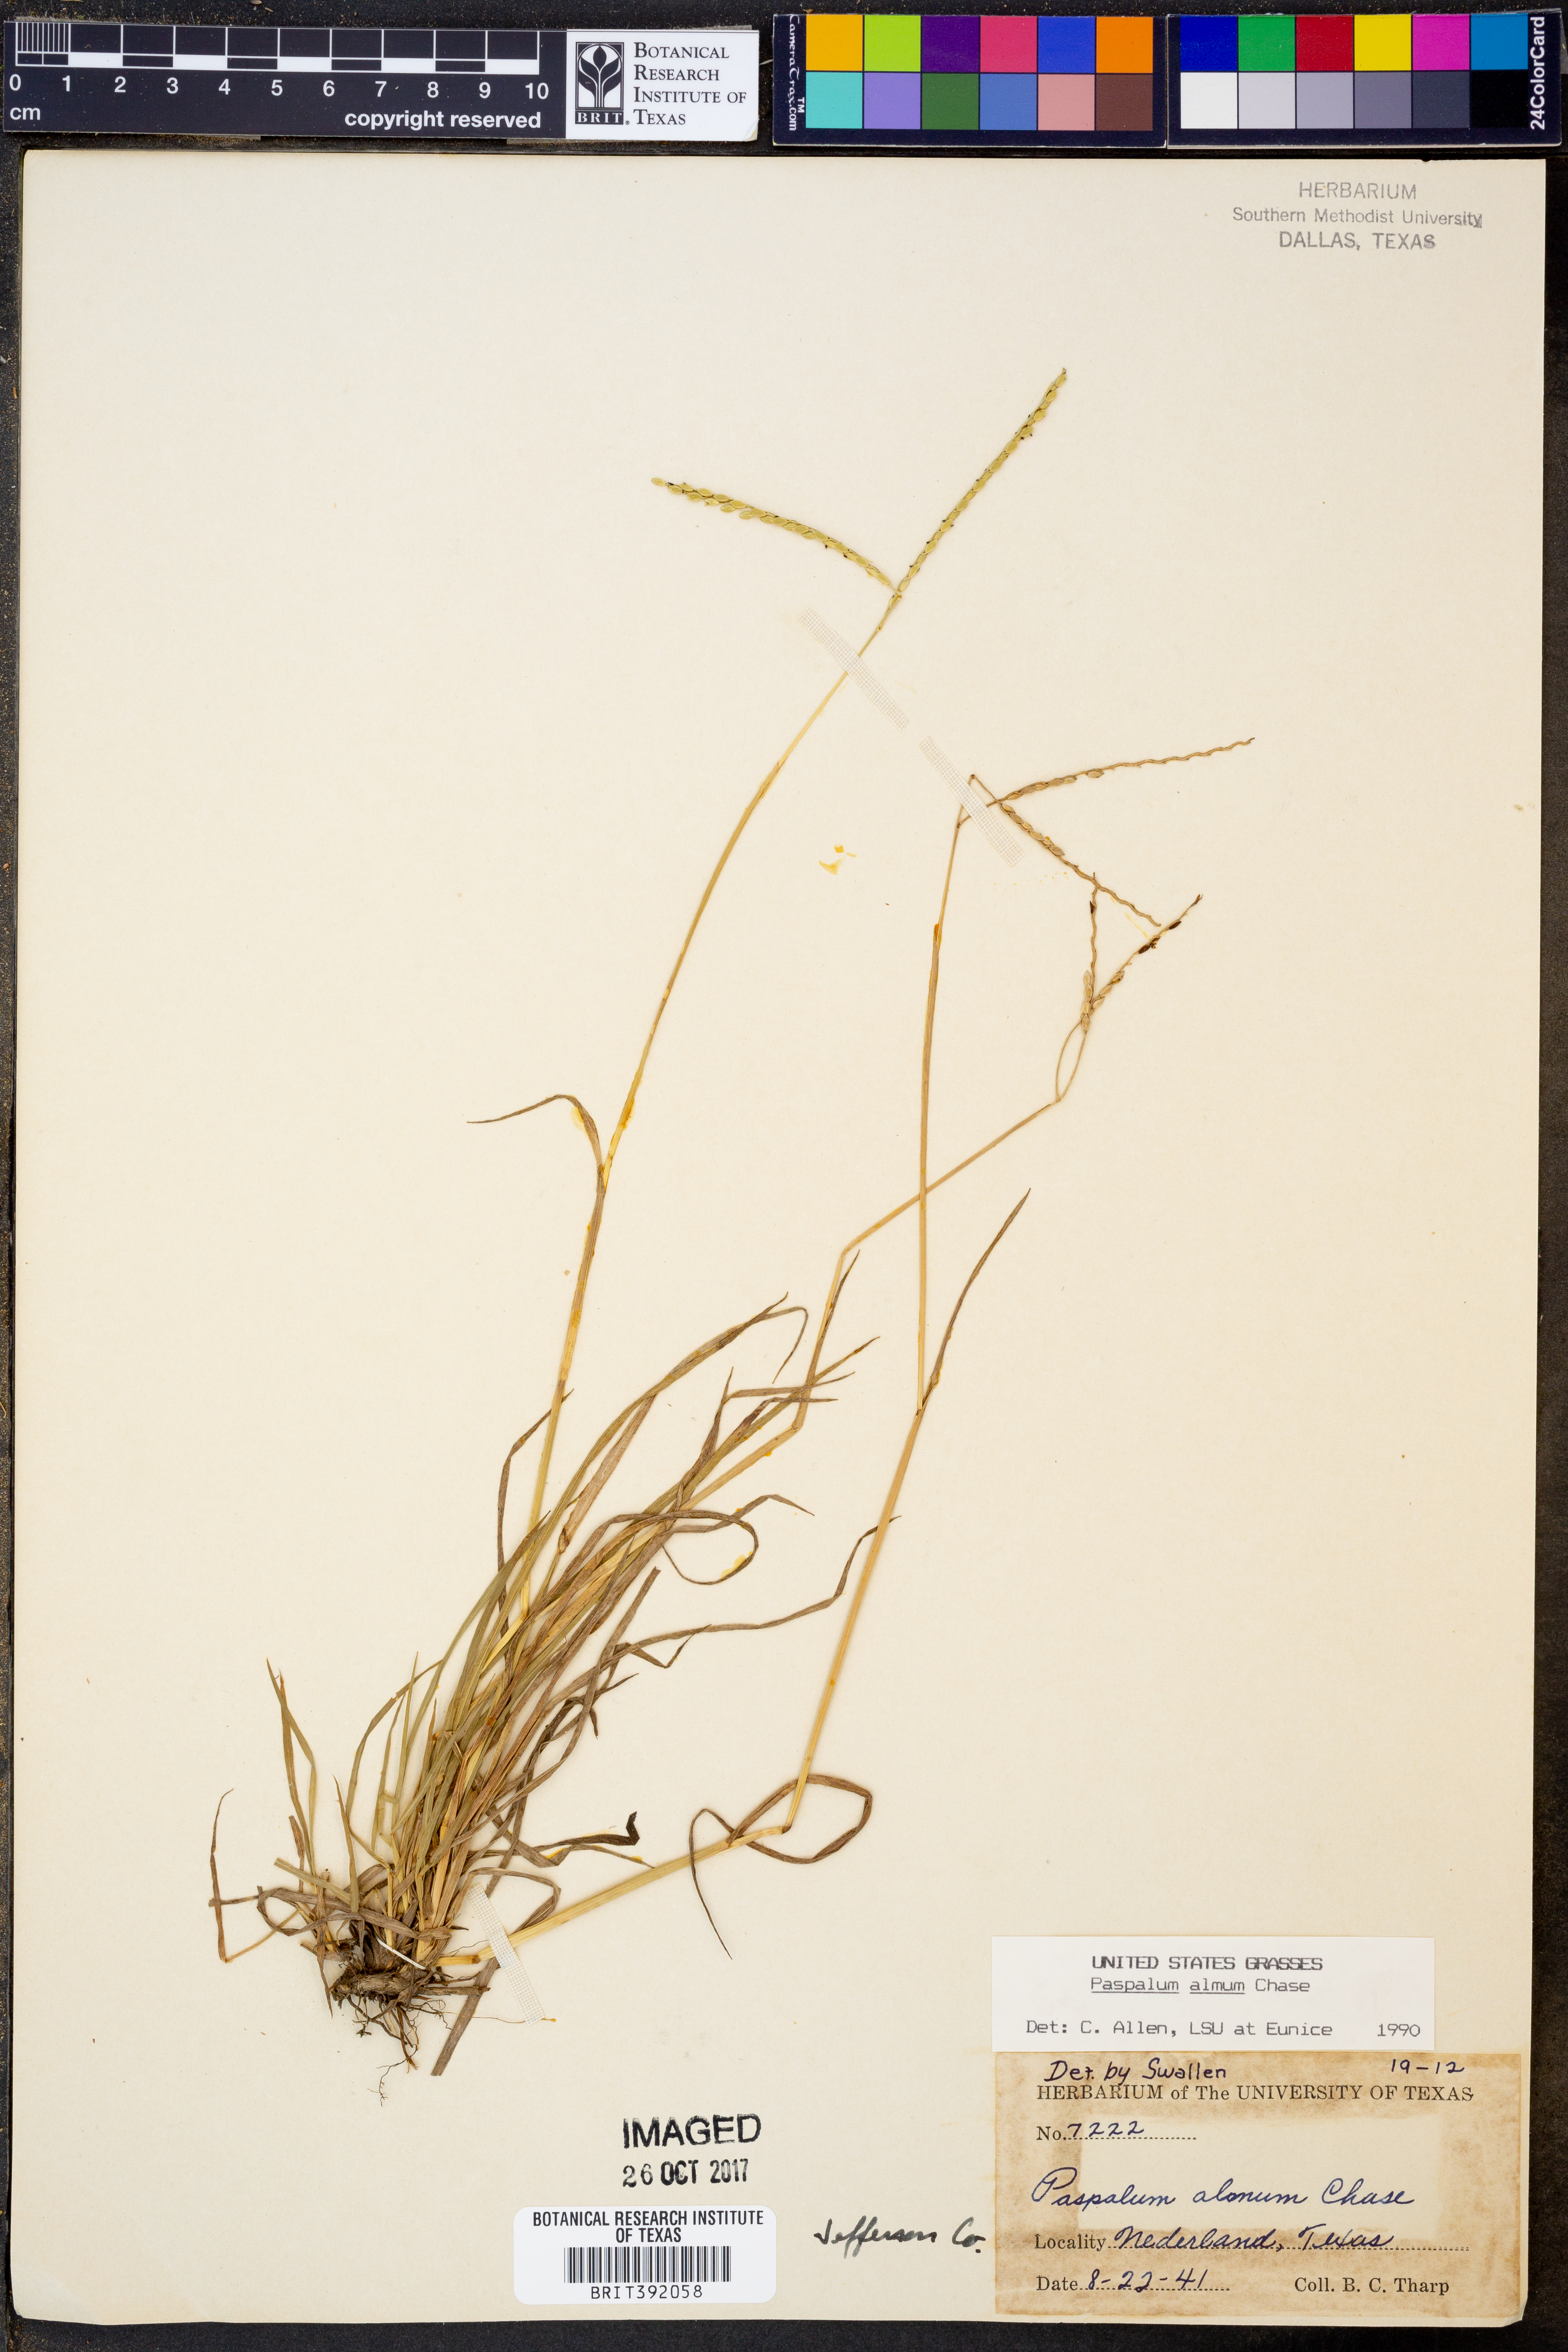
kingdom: Plantae
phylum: Tracheophyta
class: Liliopsida
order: Poales
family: Poaceae
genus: Paspalum
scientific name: Paspalum almum
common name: Comb's crowngrass
